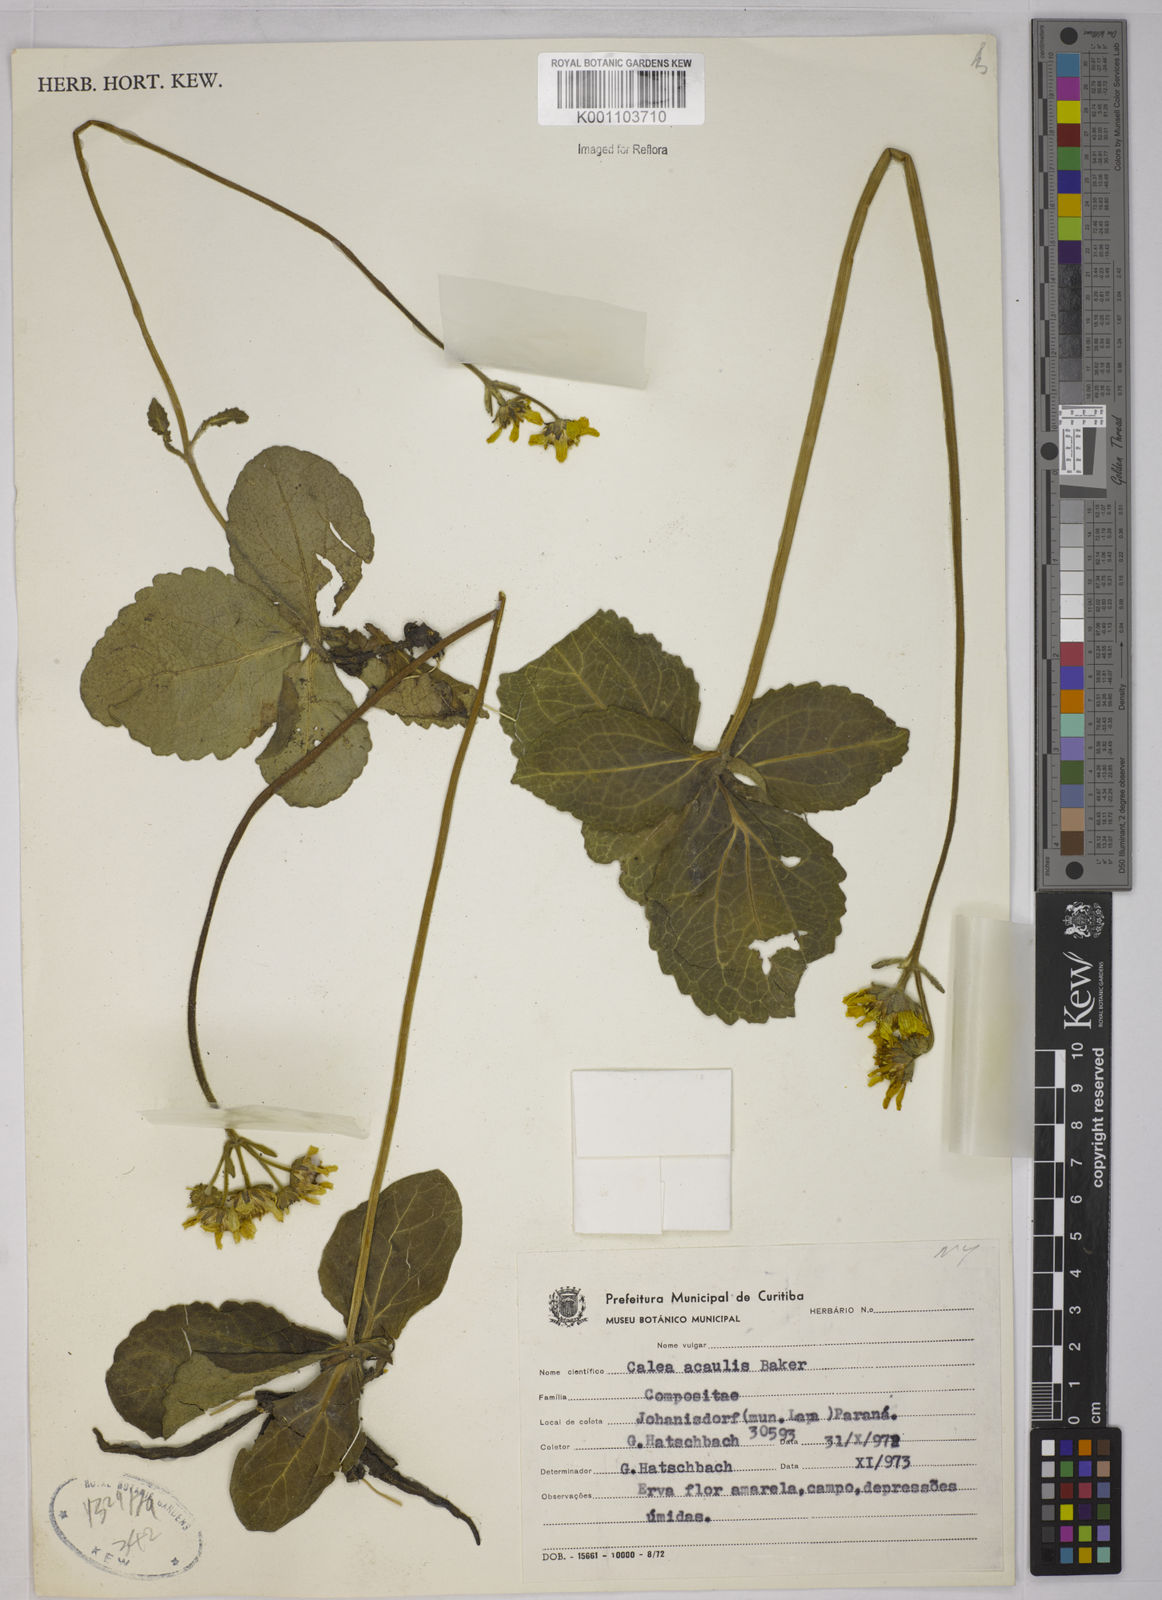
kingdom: Plantae
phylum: Tracheophyta
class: Magnoliopsida
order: Asterales
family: Asteraceae
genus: Calea
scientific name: Calea acaulis
